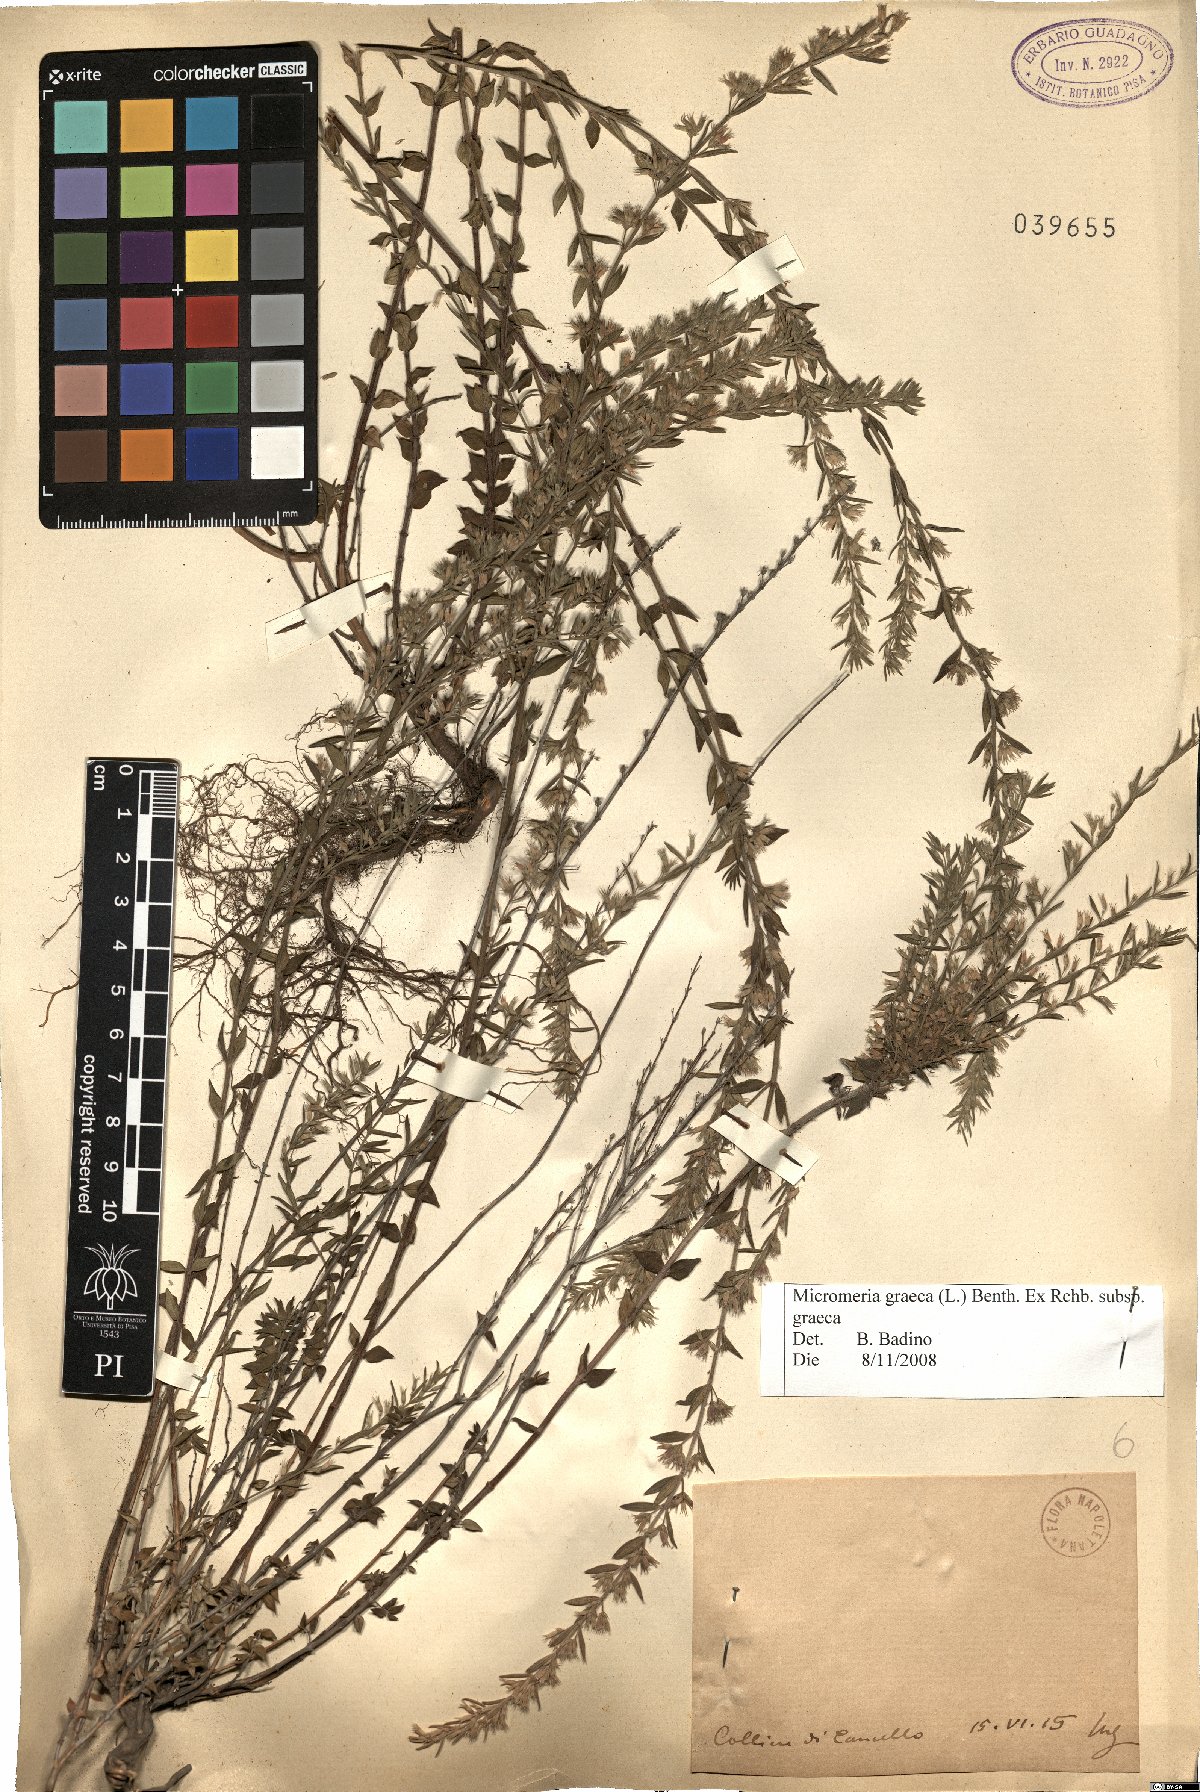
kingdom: Plantae
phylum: Tracheophyta
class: Magnoliopsida
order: Lamiales
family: Lamiaceae
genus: Micromeria
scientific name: Micromeria graeca
